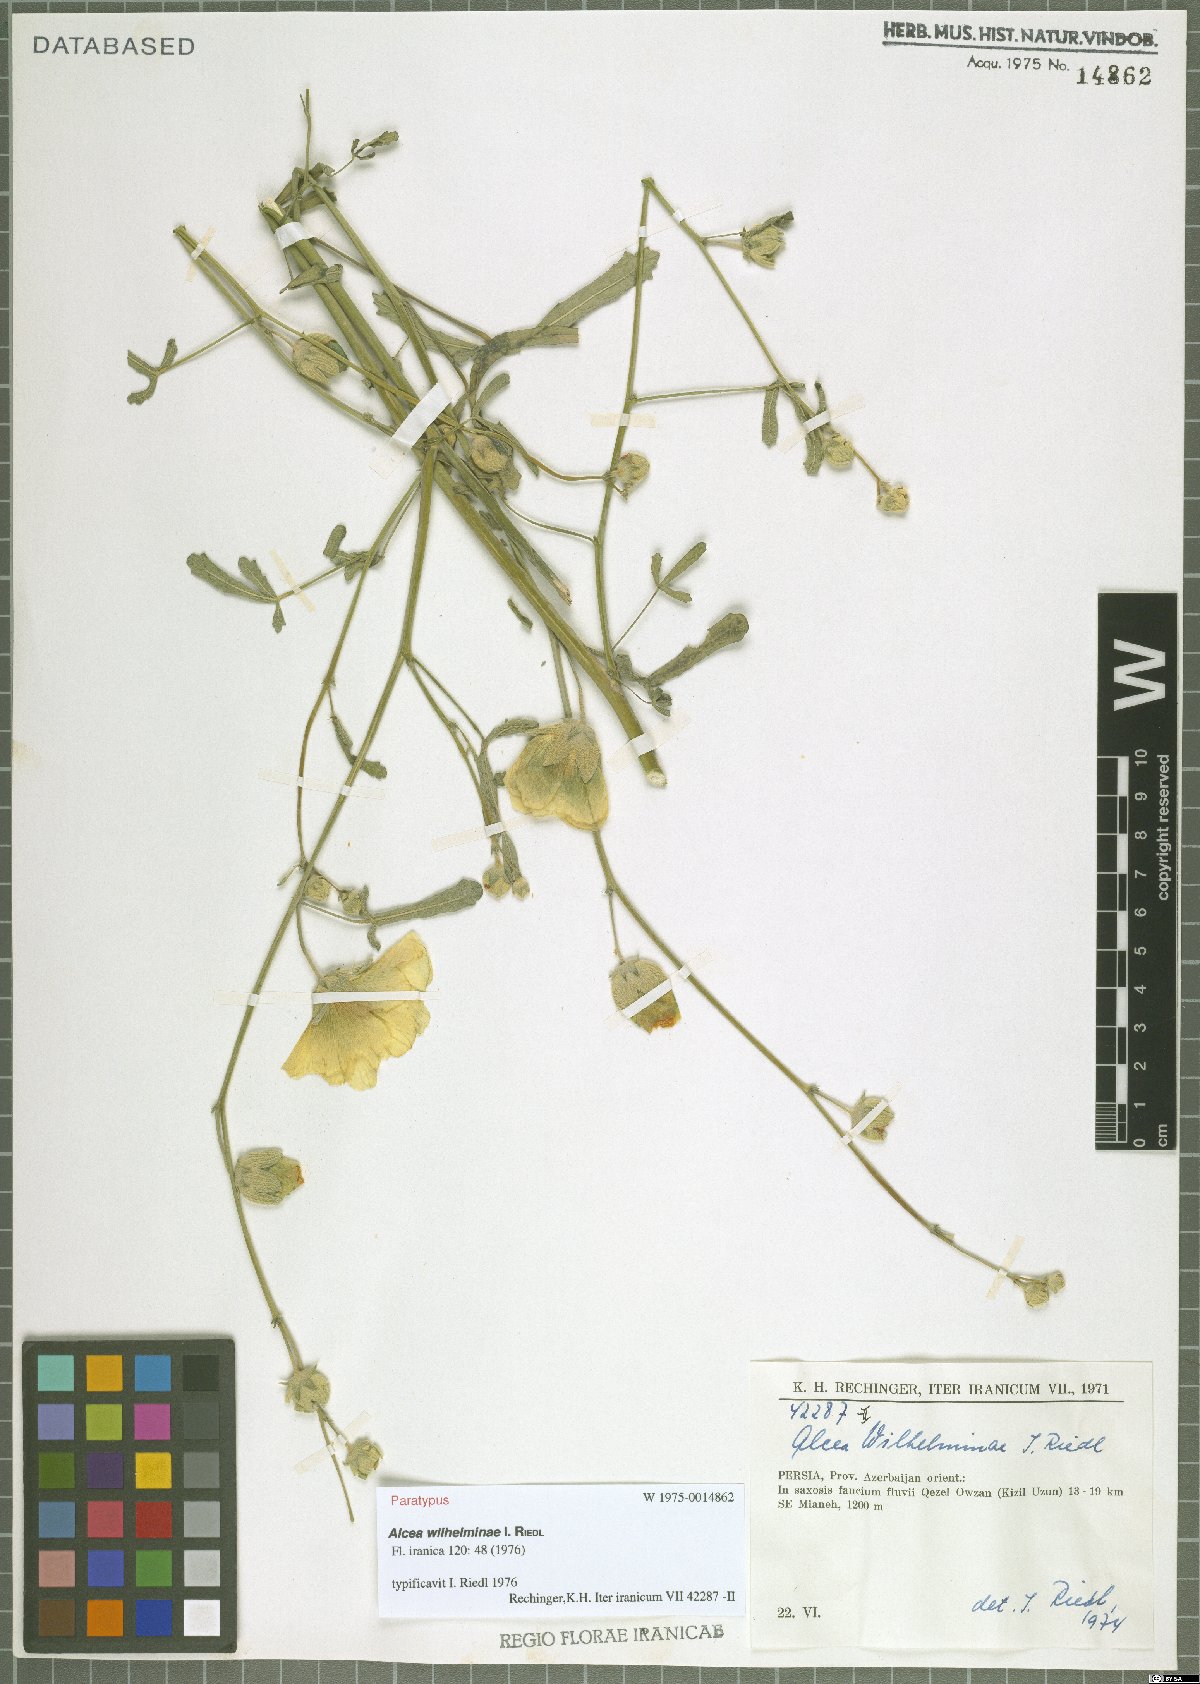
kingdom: Plantae
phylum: Tracheophyta
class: Magnoliopsida
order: Malvales
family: Malvaceae
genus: Alcea
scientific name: Alcea wilhelminae
